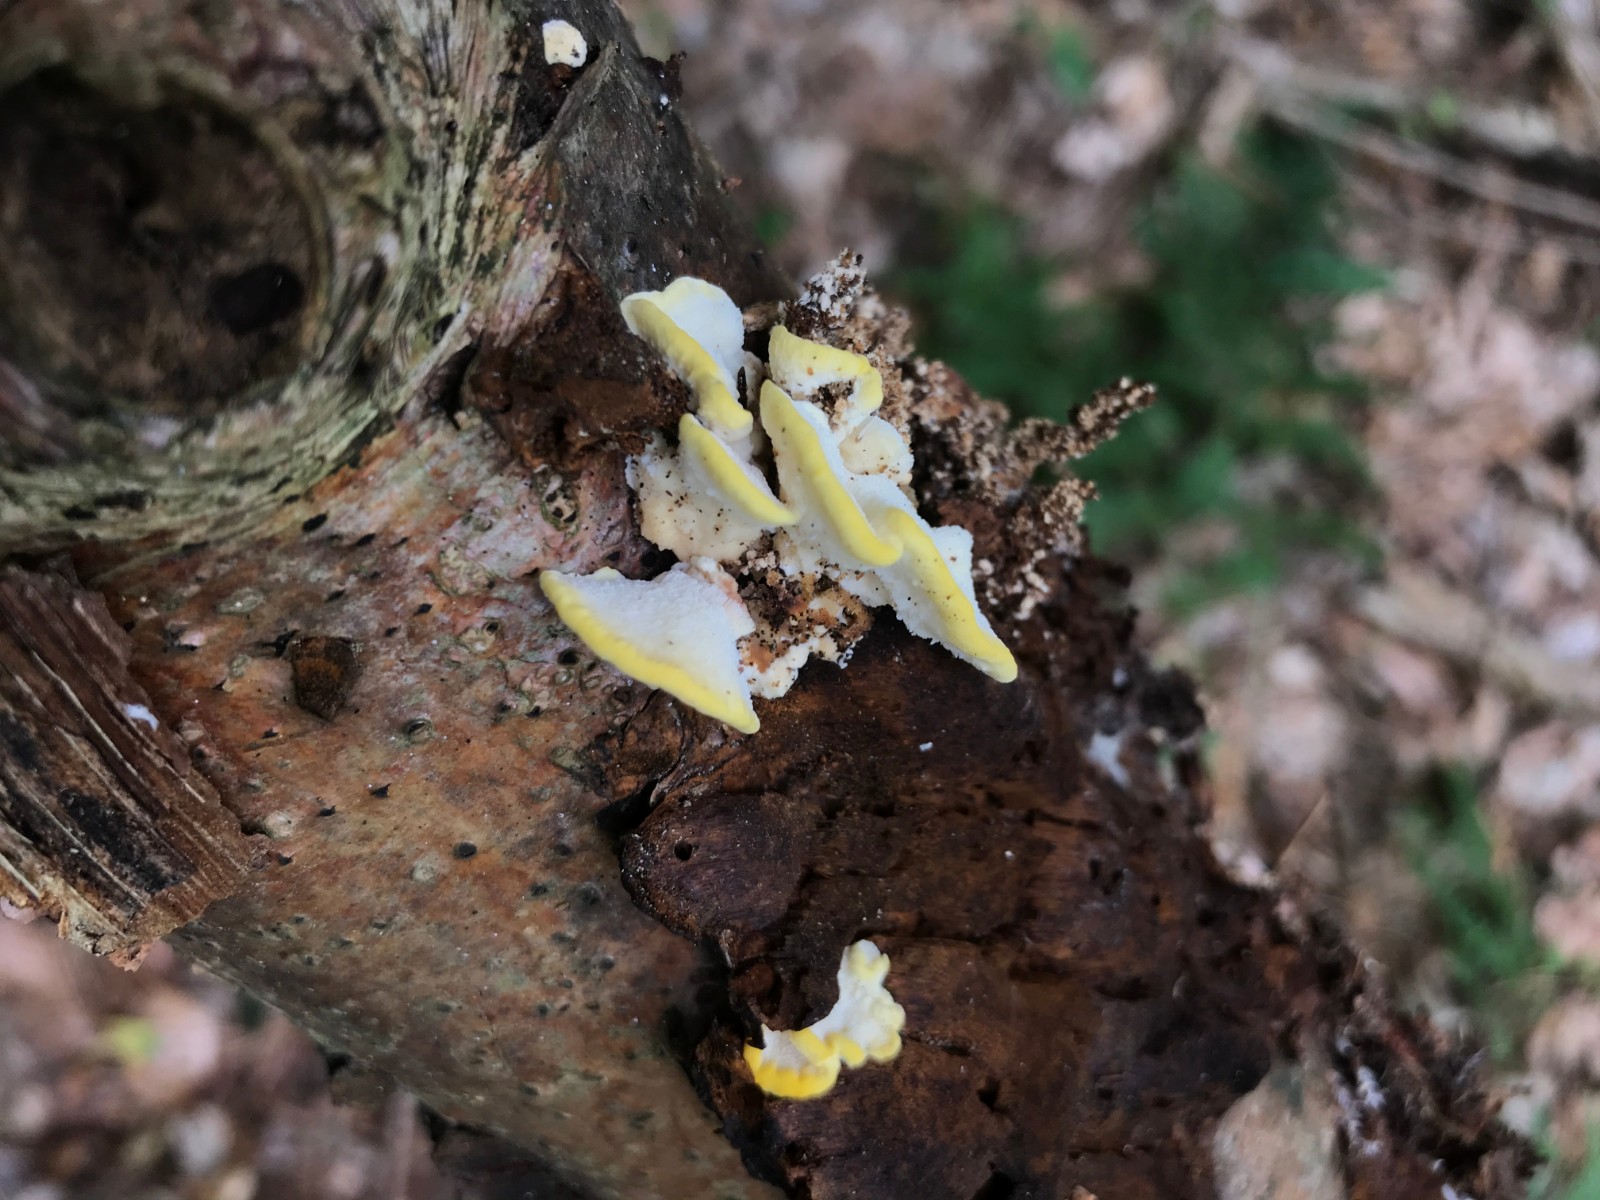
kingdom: Fungi
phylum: Basidiomycota
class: Agaricomycetes
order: Hymenochaetales
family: Hymenochaetaceae
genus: Xanthoporia
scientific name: Xanthoporia radiata
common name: elle-spejlporesvamp
